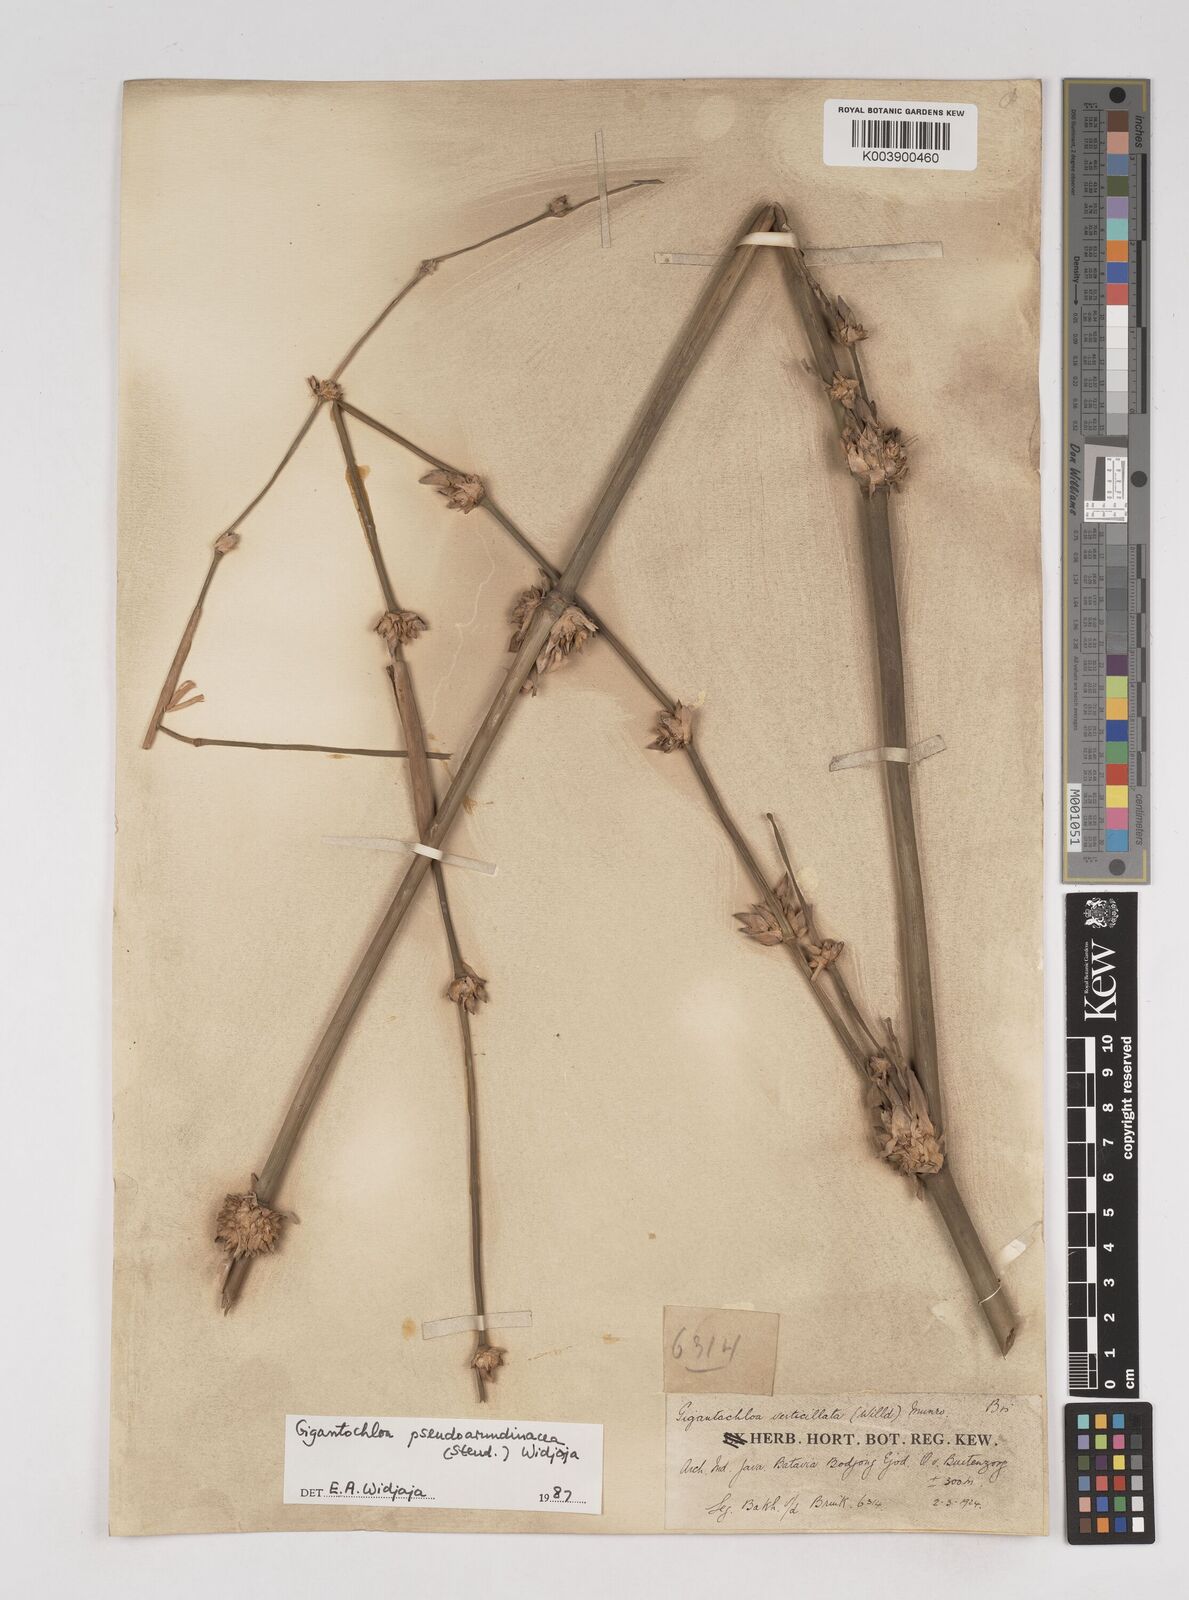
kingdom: Plantae
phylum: Tracheophyta
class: Liliopsida
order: Poales
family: Poaceae
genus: Gigantochloa
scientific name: Gigantochloa verticillata
